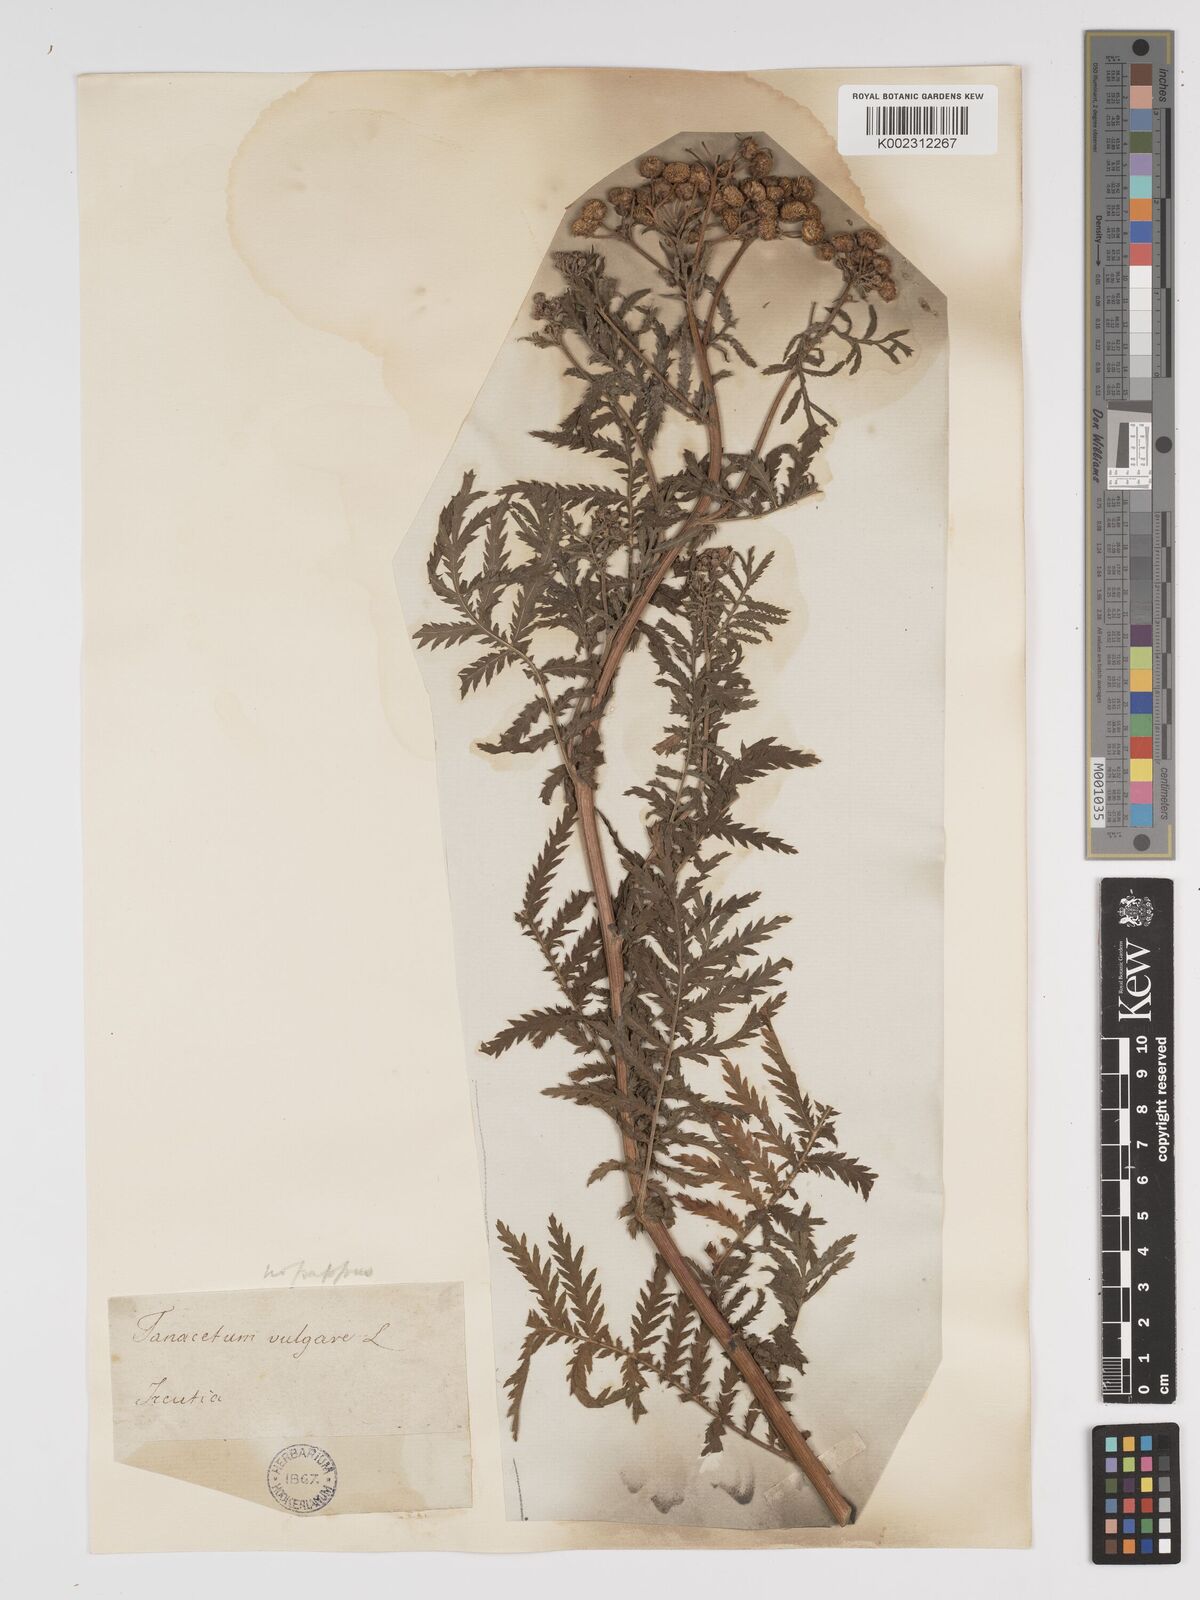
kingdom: Plantae
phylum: Tracheophyta
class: Magnoliopsida
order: Asterales
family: Asteraceae
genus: Tanacetum
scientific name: Tanacetum vulgare
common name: Common tansy
